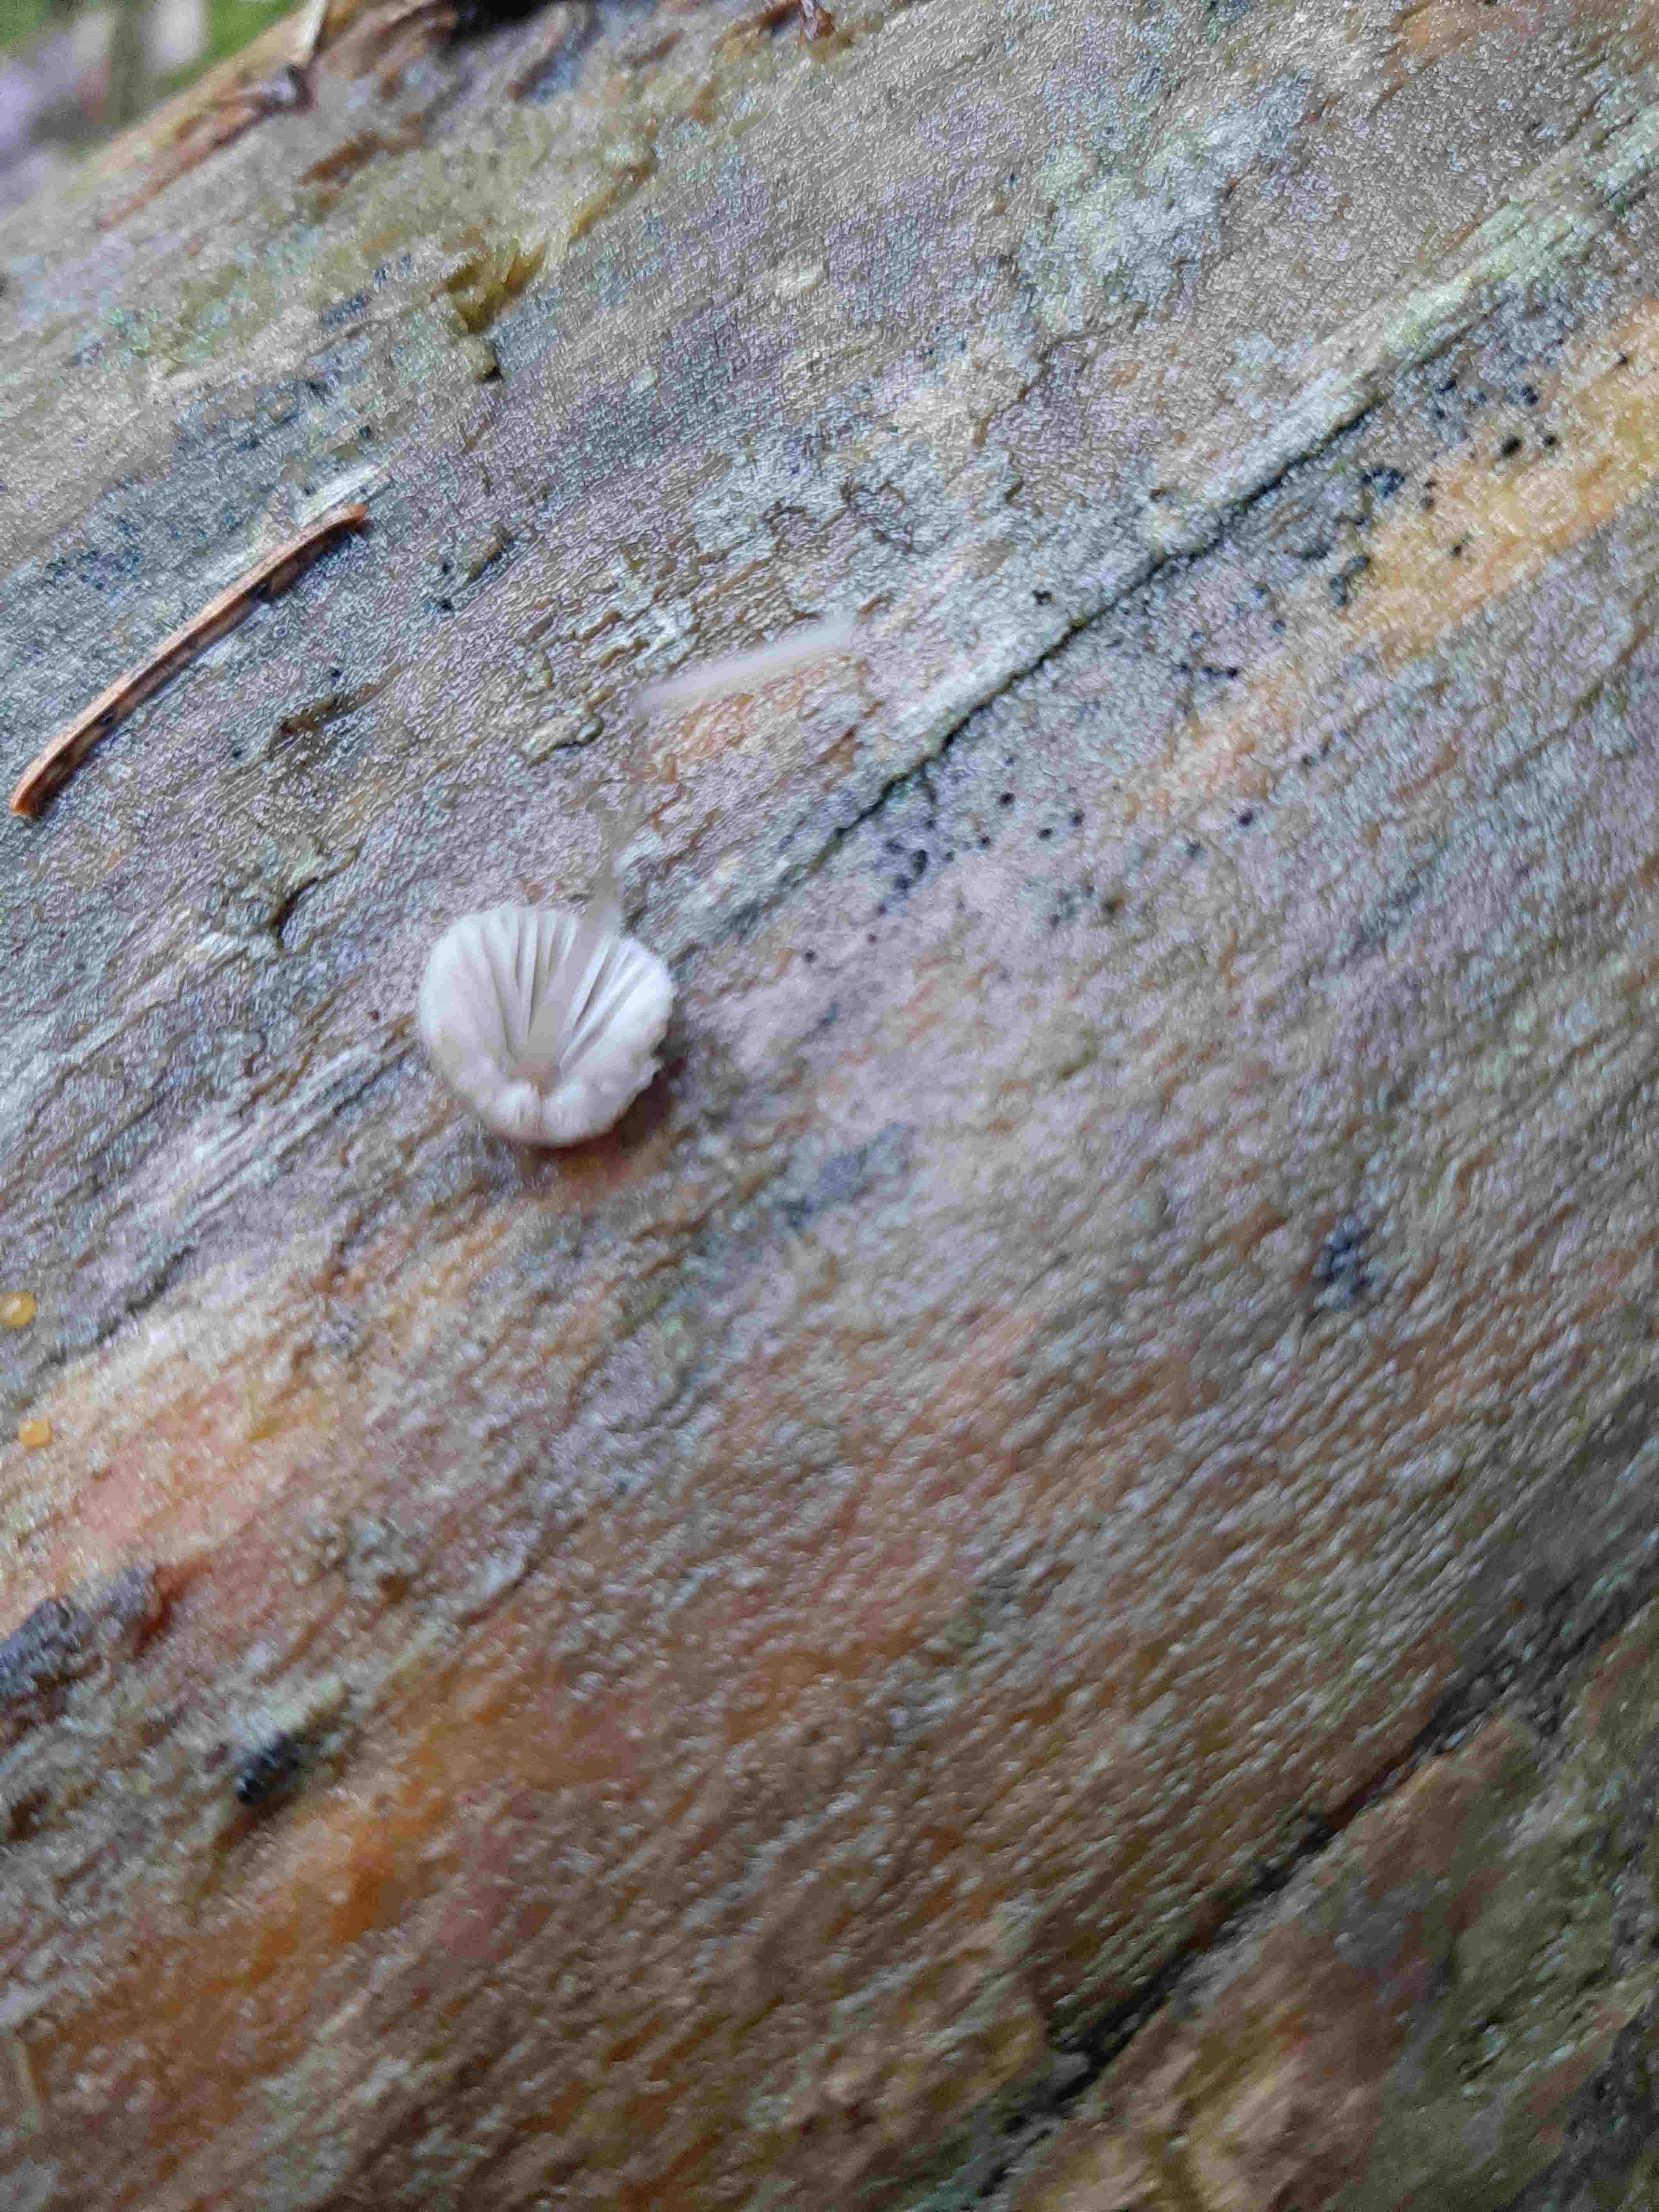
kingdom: Fungi
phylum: Basidiomycota
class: Agaricomycetes
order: Agaricales
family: Mycenaceae
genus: Mycena
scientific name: Mycena
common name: huesvamp
